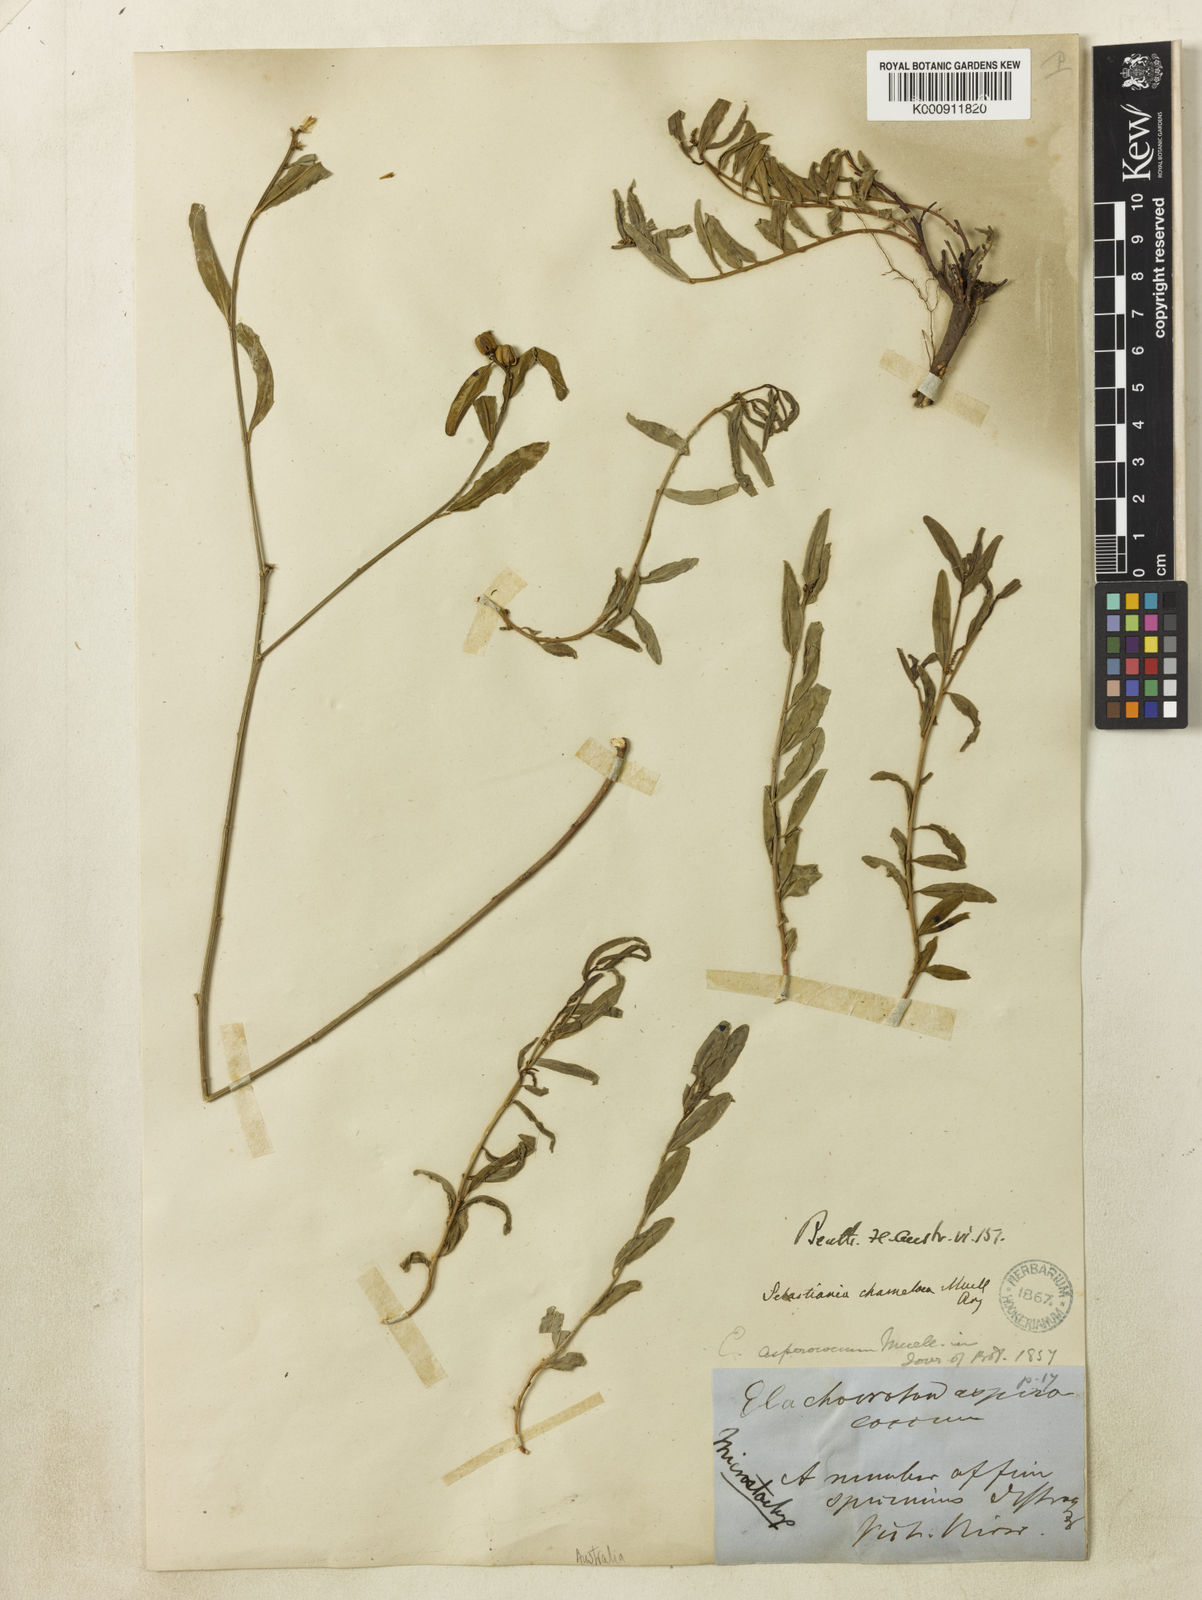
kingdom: Plantae
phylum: Tracheophyta
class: Magnoliopsida
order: Malpighiales
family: Euphorbiaceae
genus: Microstachys
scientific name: Microstachys
